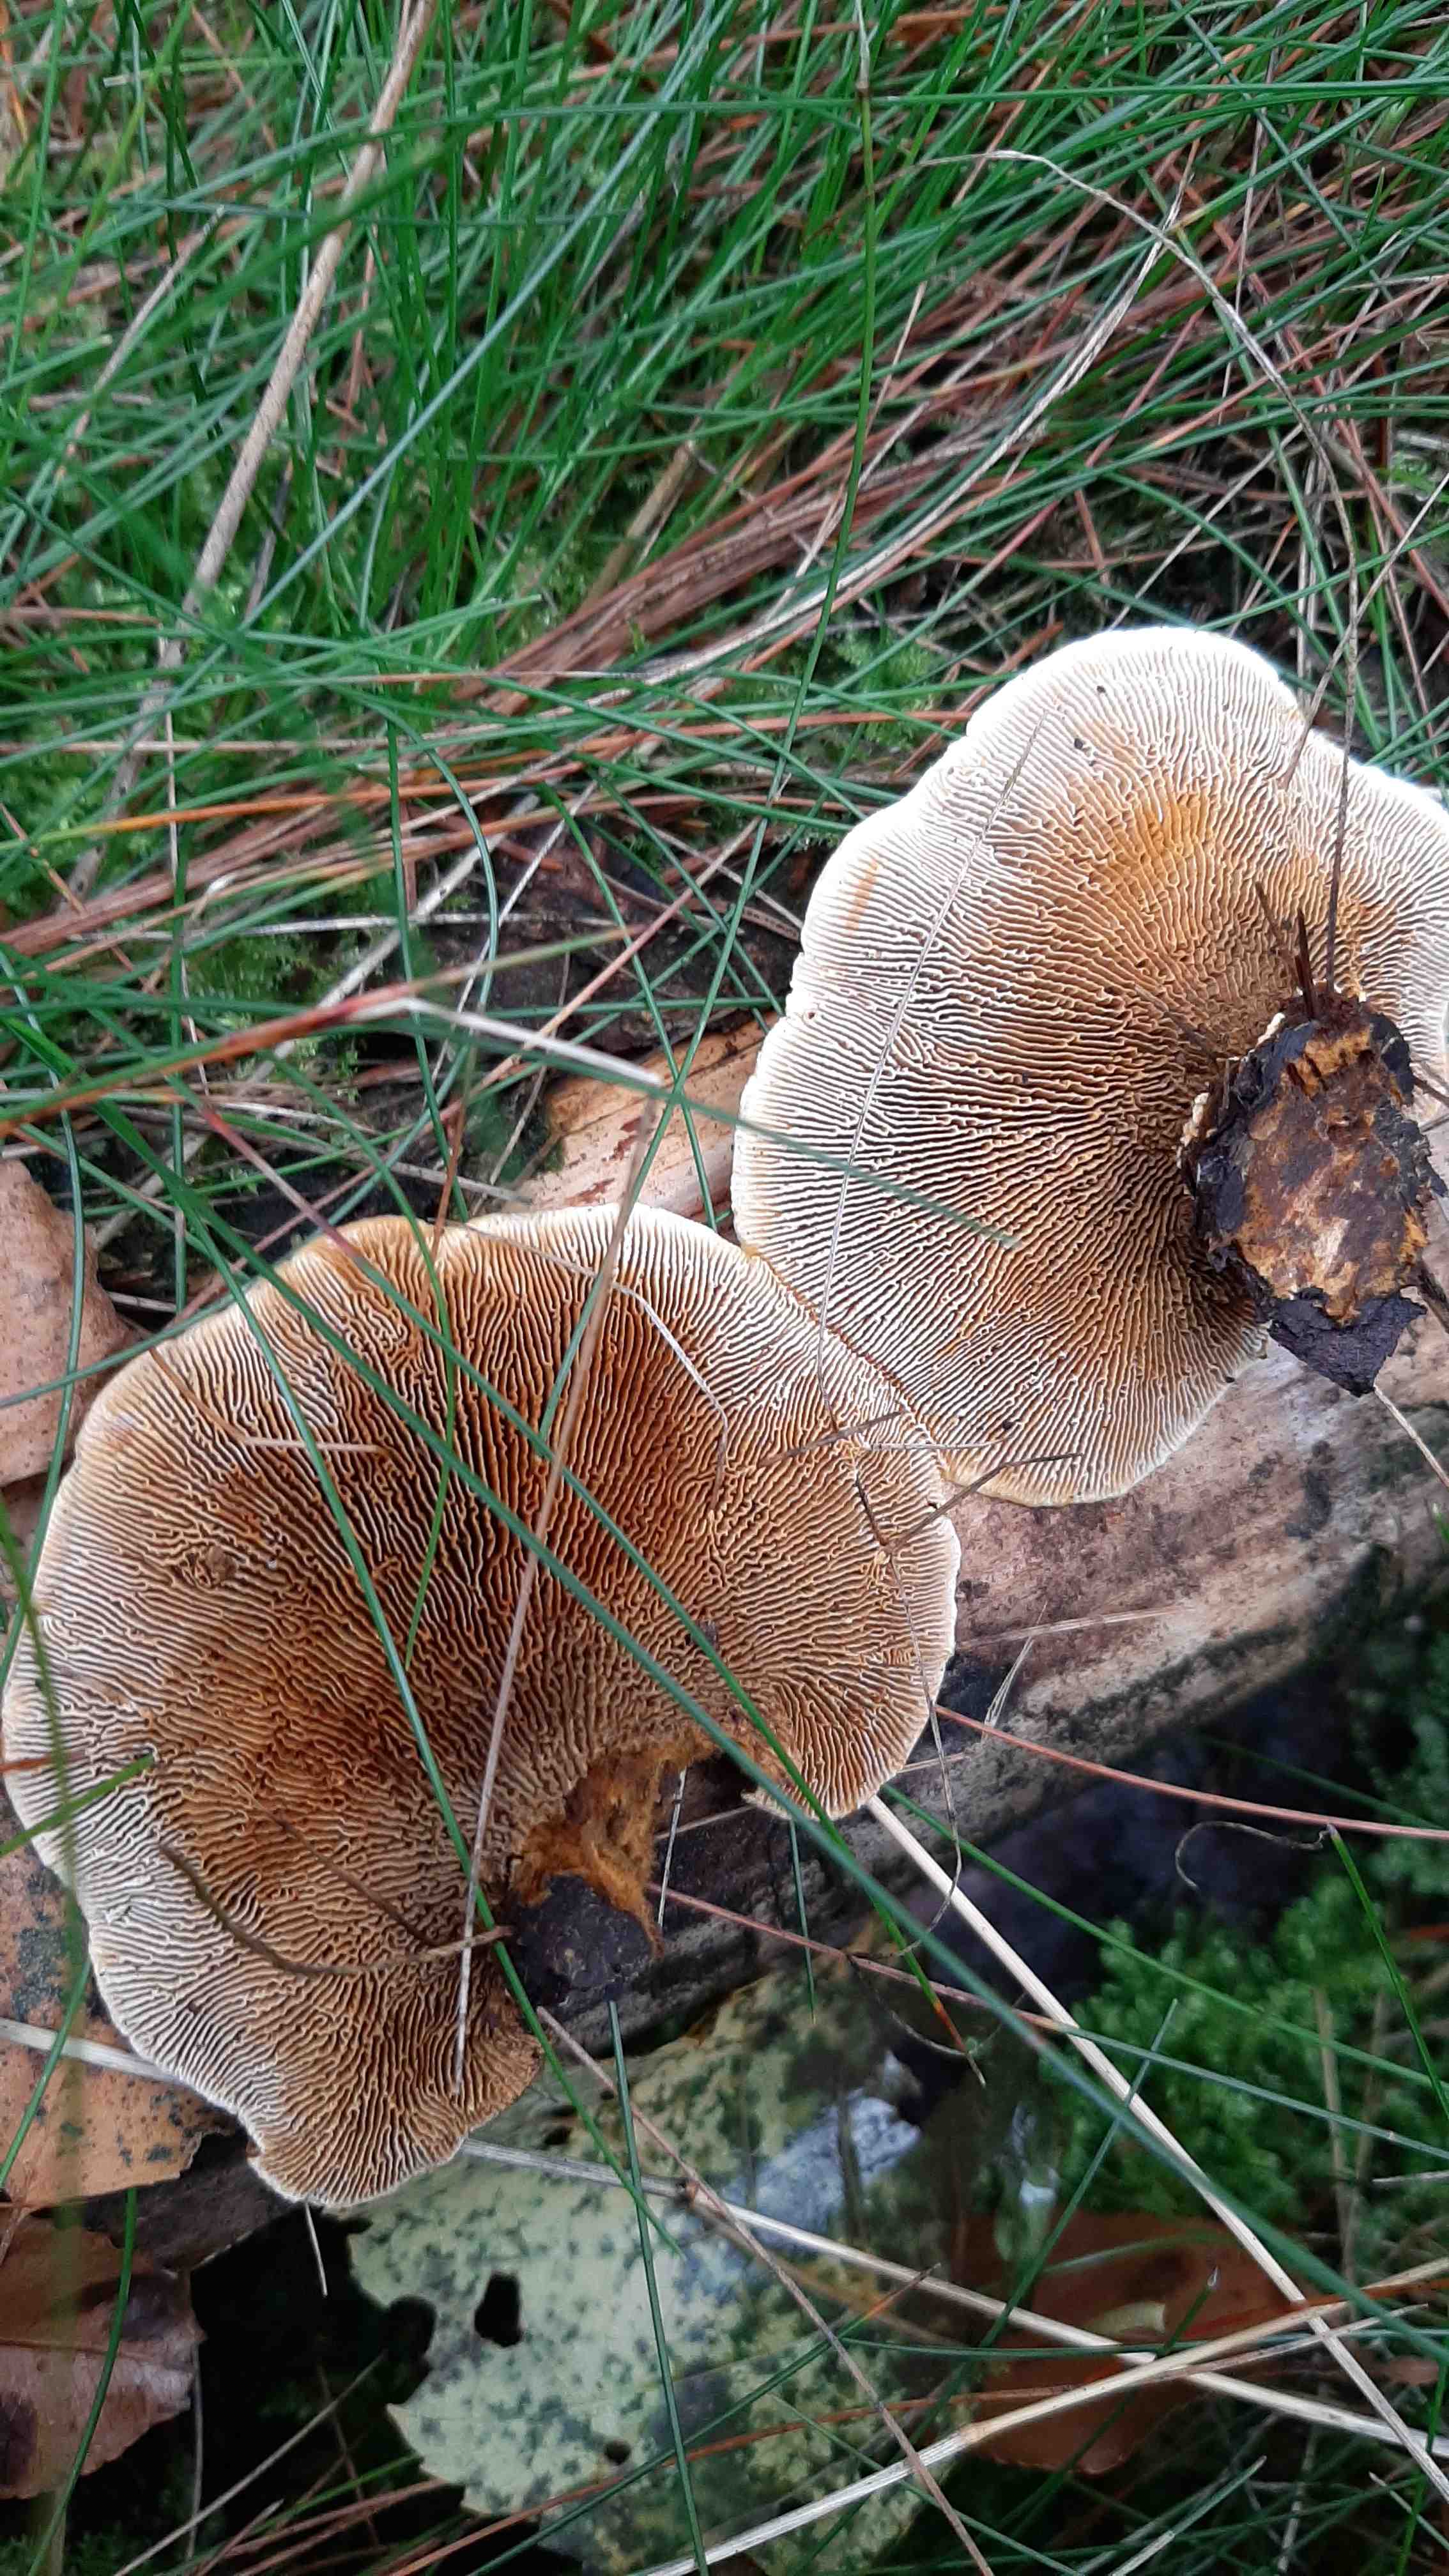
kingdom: Fungi
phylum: Basidiomycota
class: Agaricomycetes
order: Gloeophyllales
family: Gloeophyllaceae
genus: Gloeophyllum
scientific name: Gloeophyllum sepiarium
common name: fyrre-korkhat
